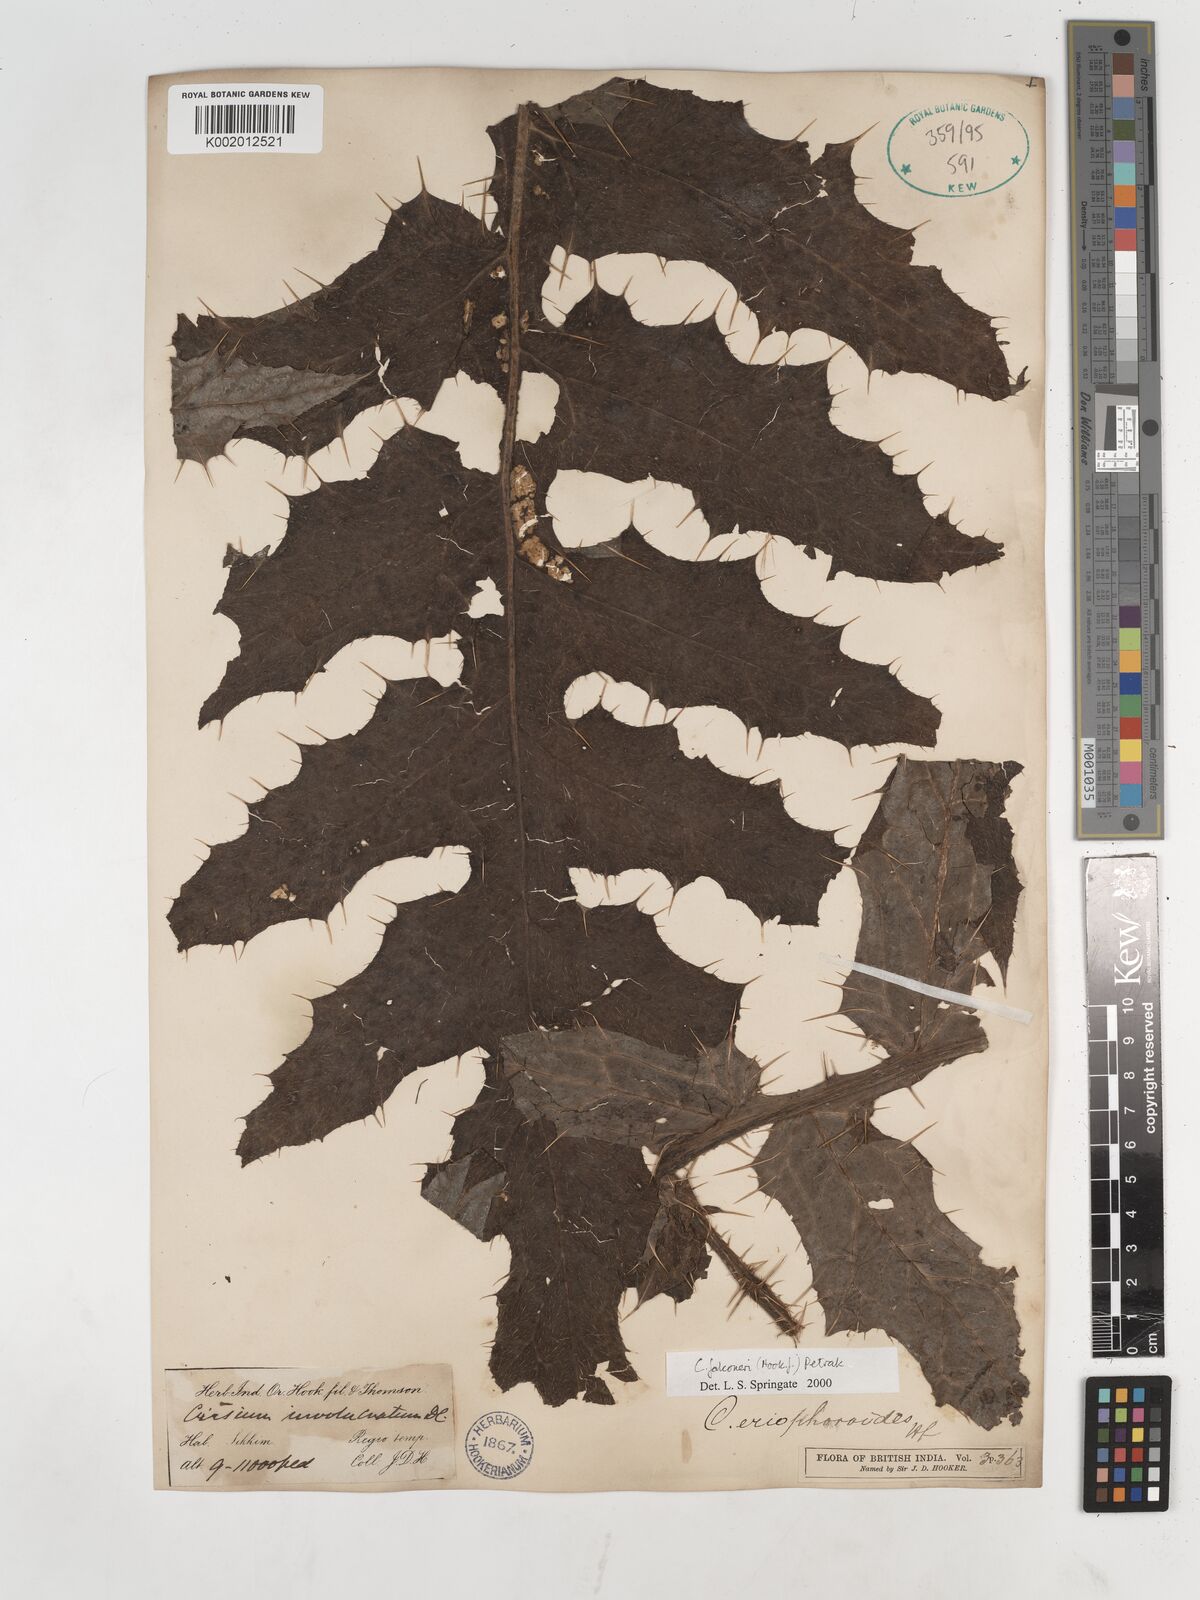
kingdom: Plantae
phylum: Tracheophyta
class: Magnoliopsida
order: Asterales
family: Asteraceae
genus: Cirsium
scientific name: Cirsium falconeri
